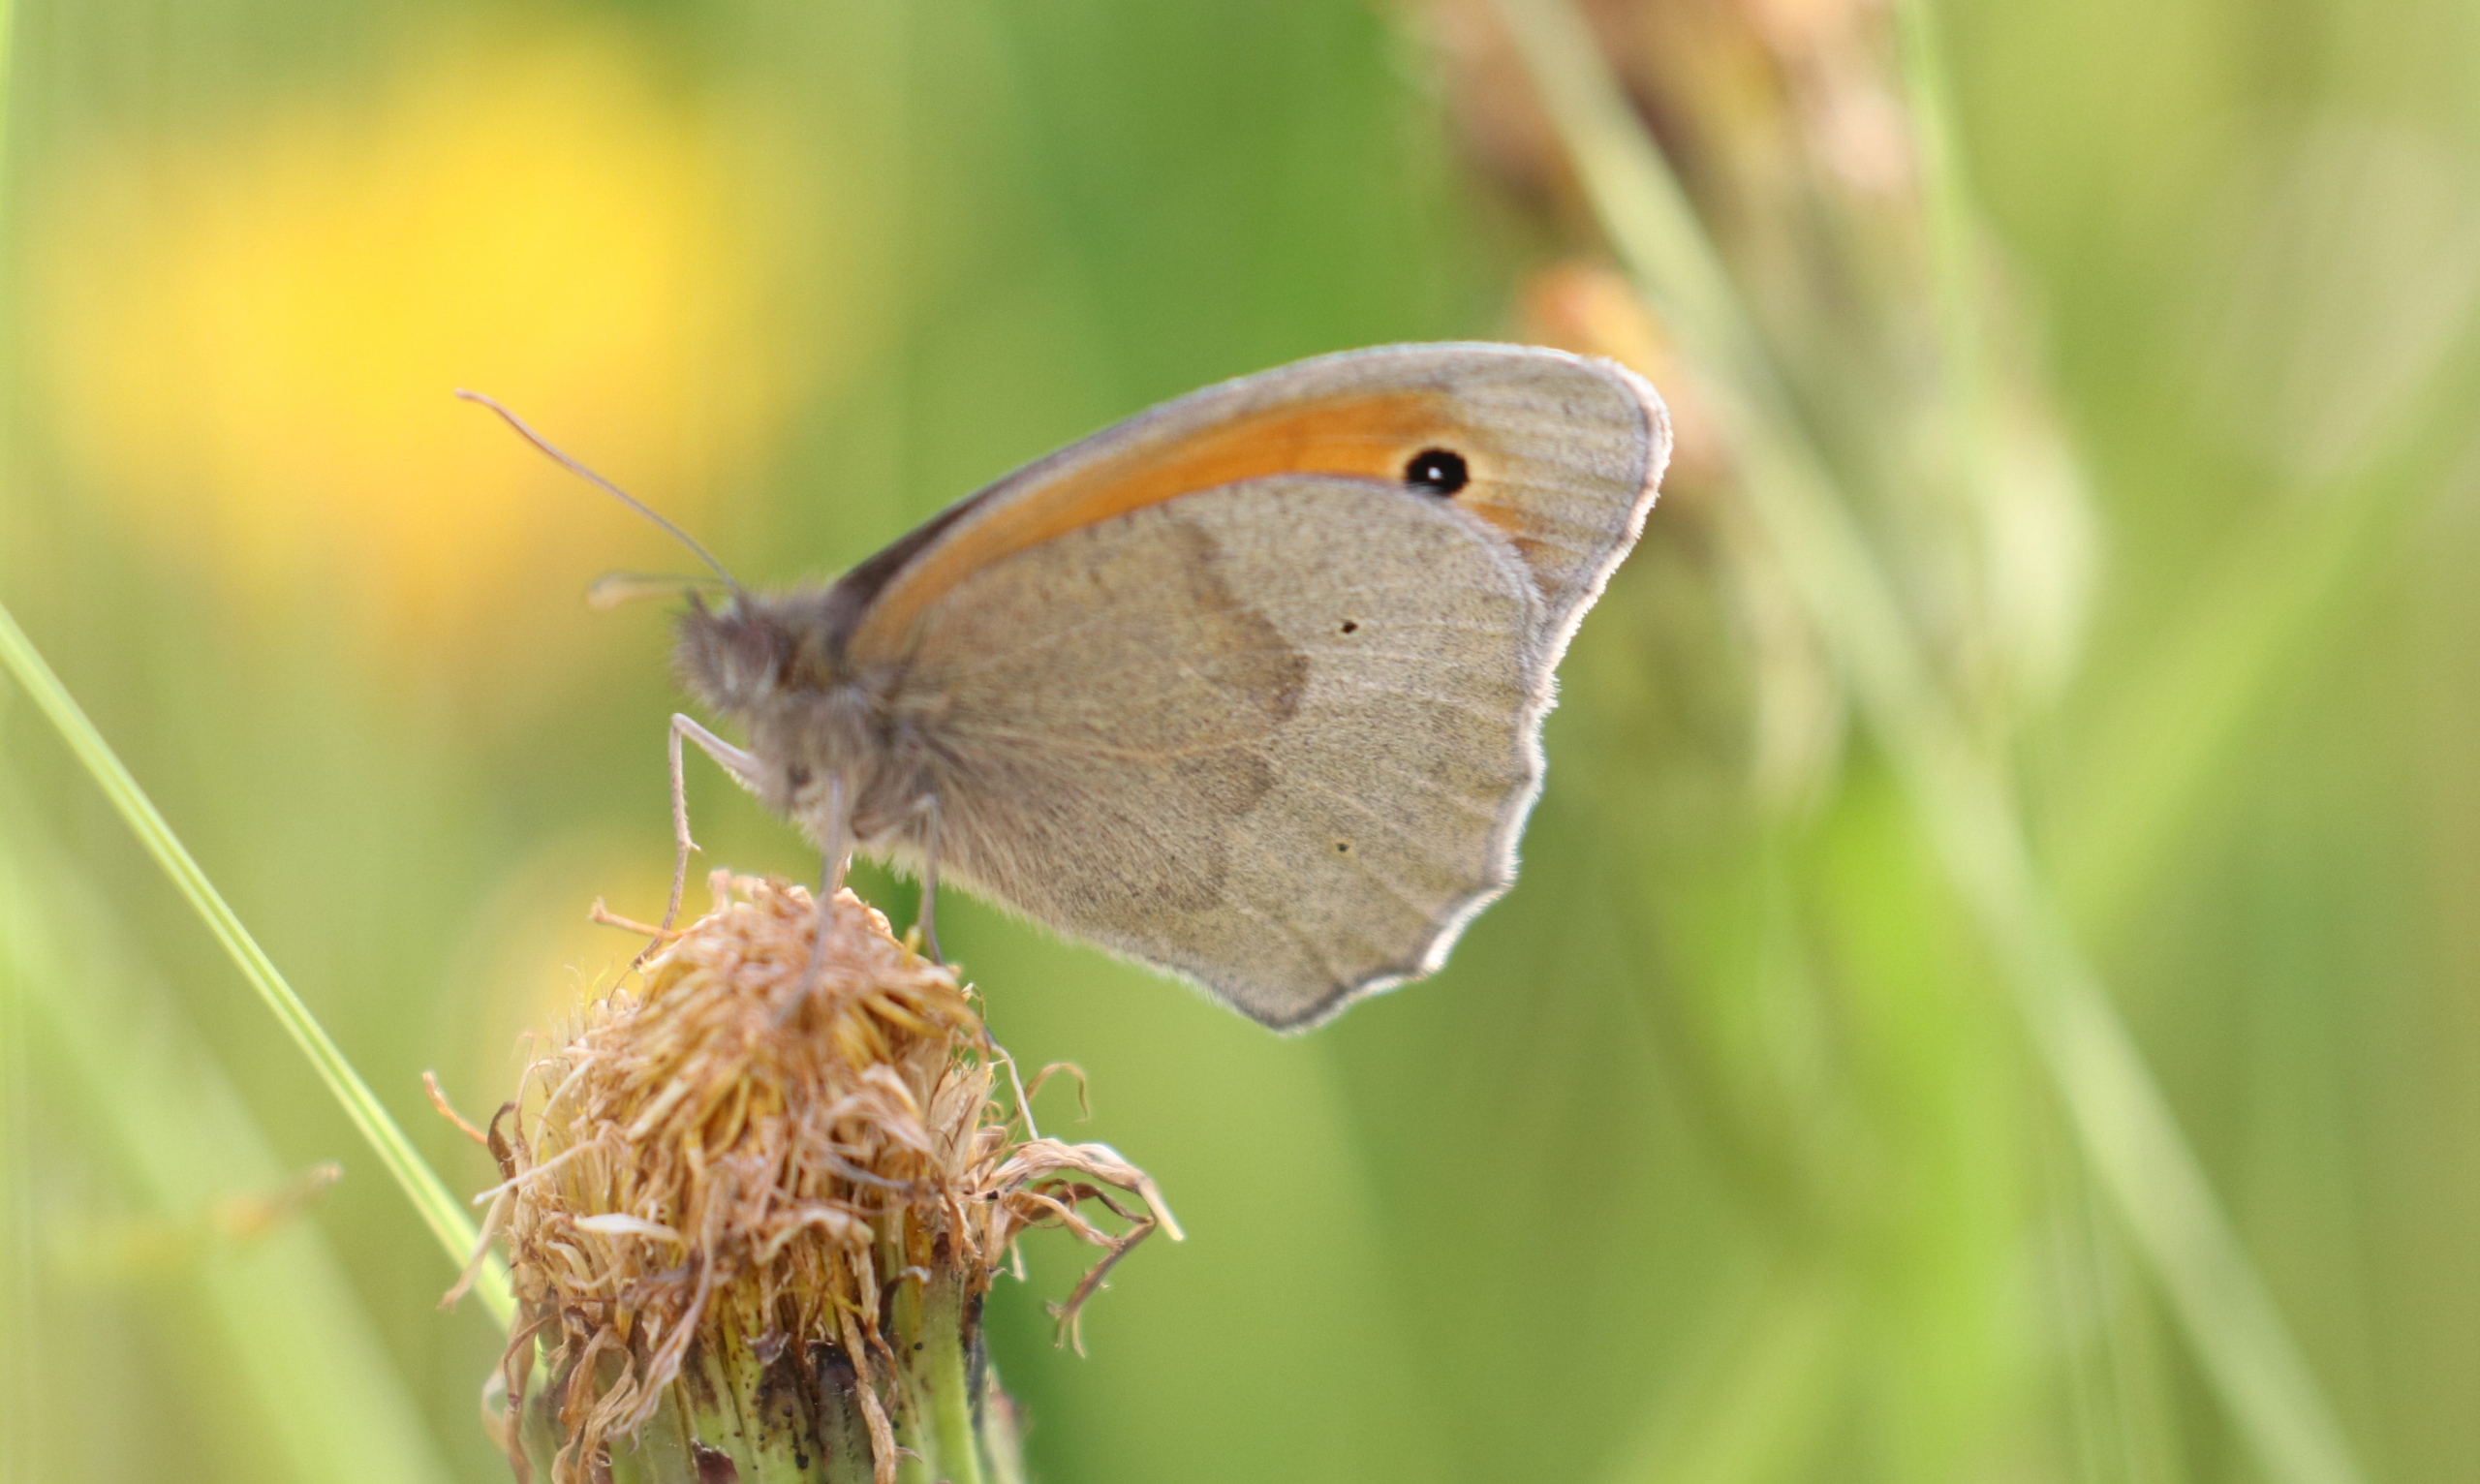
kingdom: Animalia
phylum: Arthropoda
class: Insecta
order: Lepidoptera
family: Nymphalidae
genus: Maniola
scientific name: Maniola jurtina
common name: Græsrandøje
